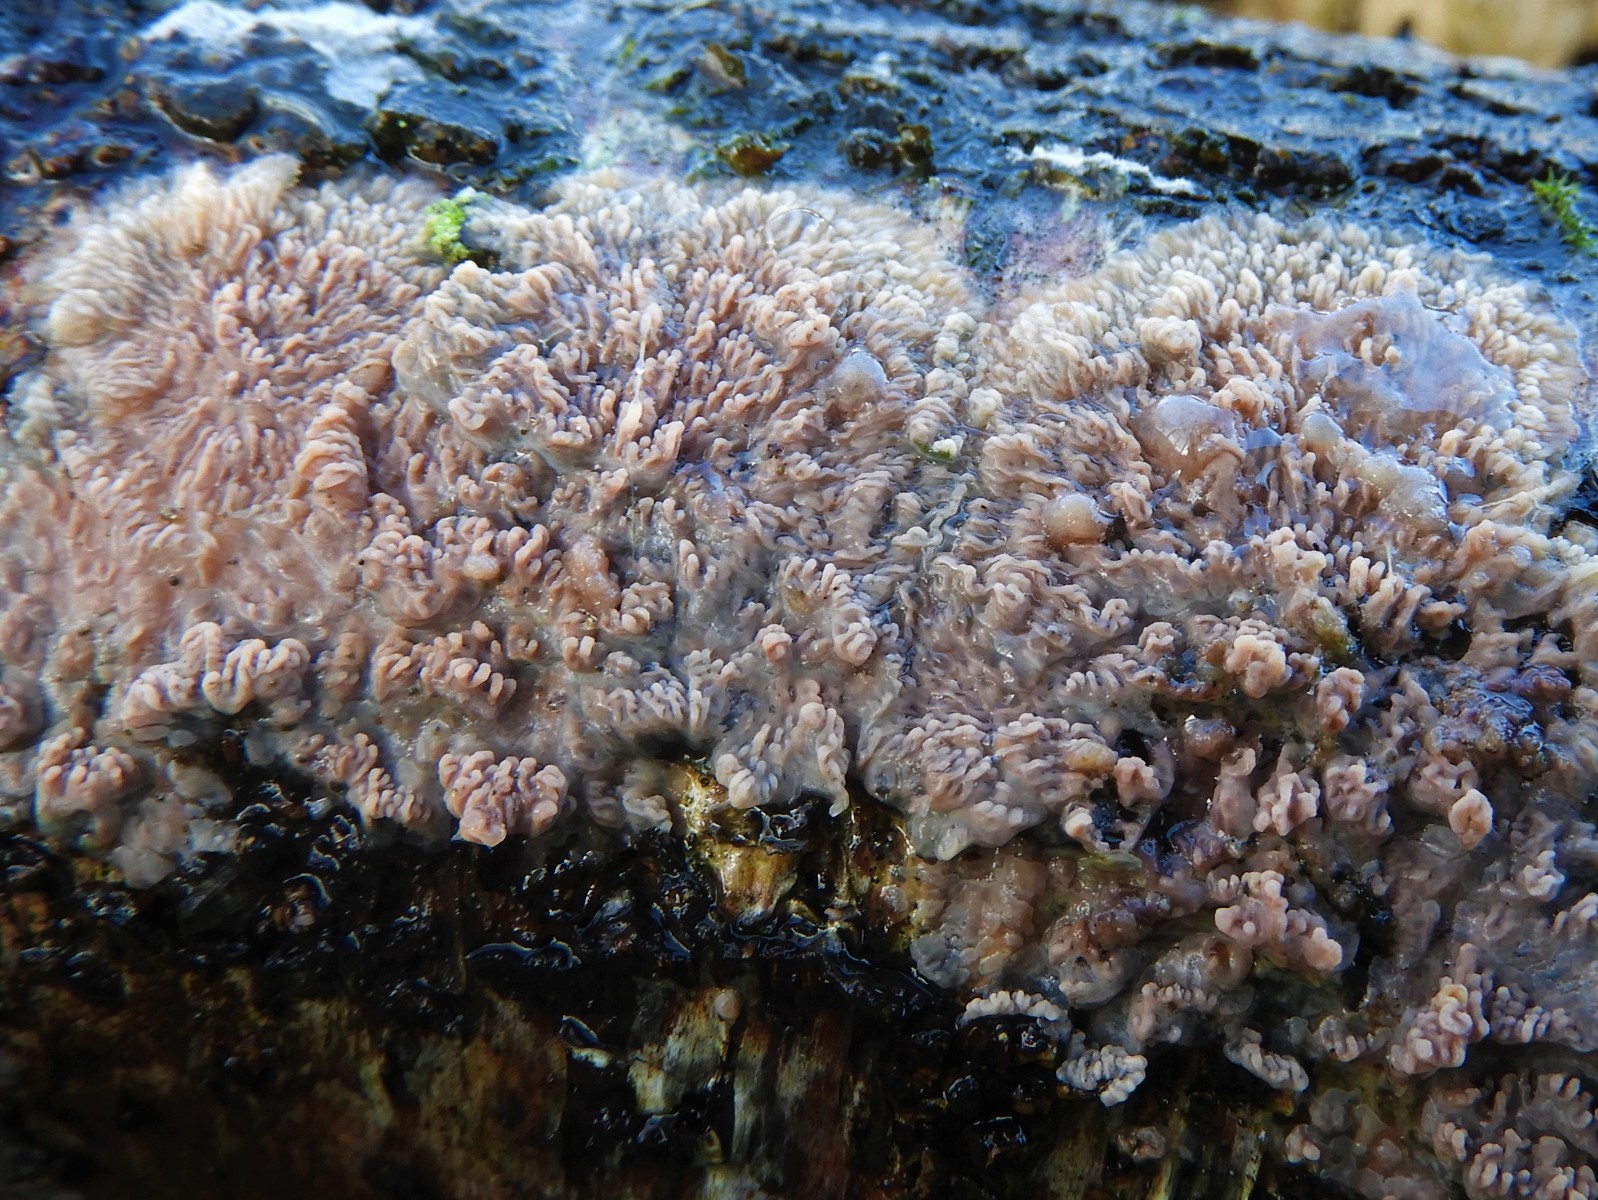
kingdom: Fungi
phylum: Basidiomycota
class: Agaricomycetes
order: Polyporales
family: Meruliaceae
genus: Phlebia
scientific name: Phlebia radiata
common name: stråle-åresvamp
